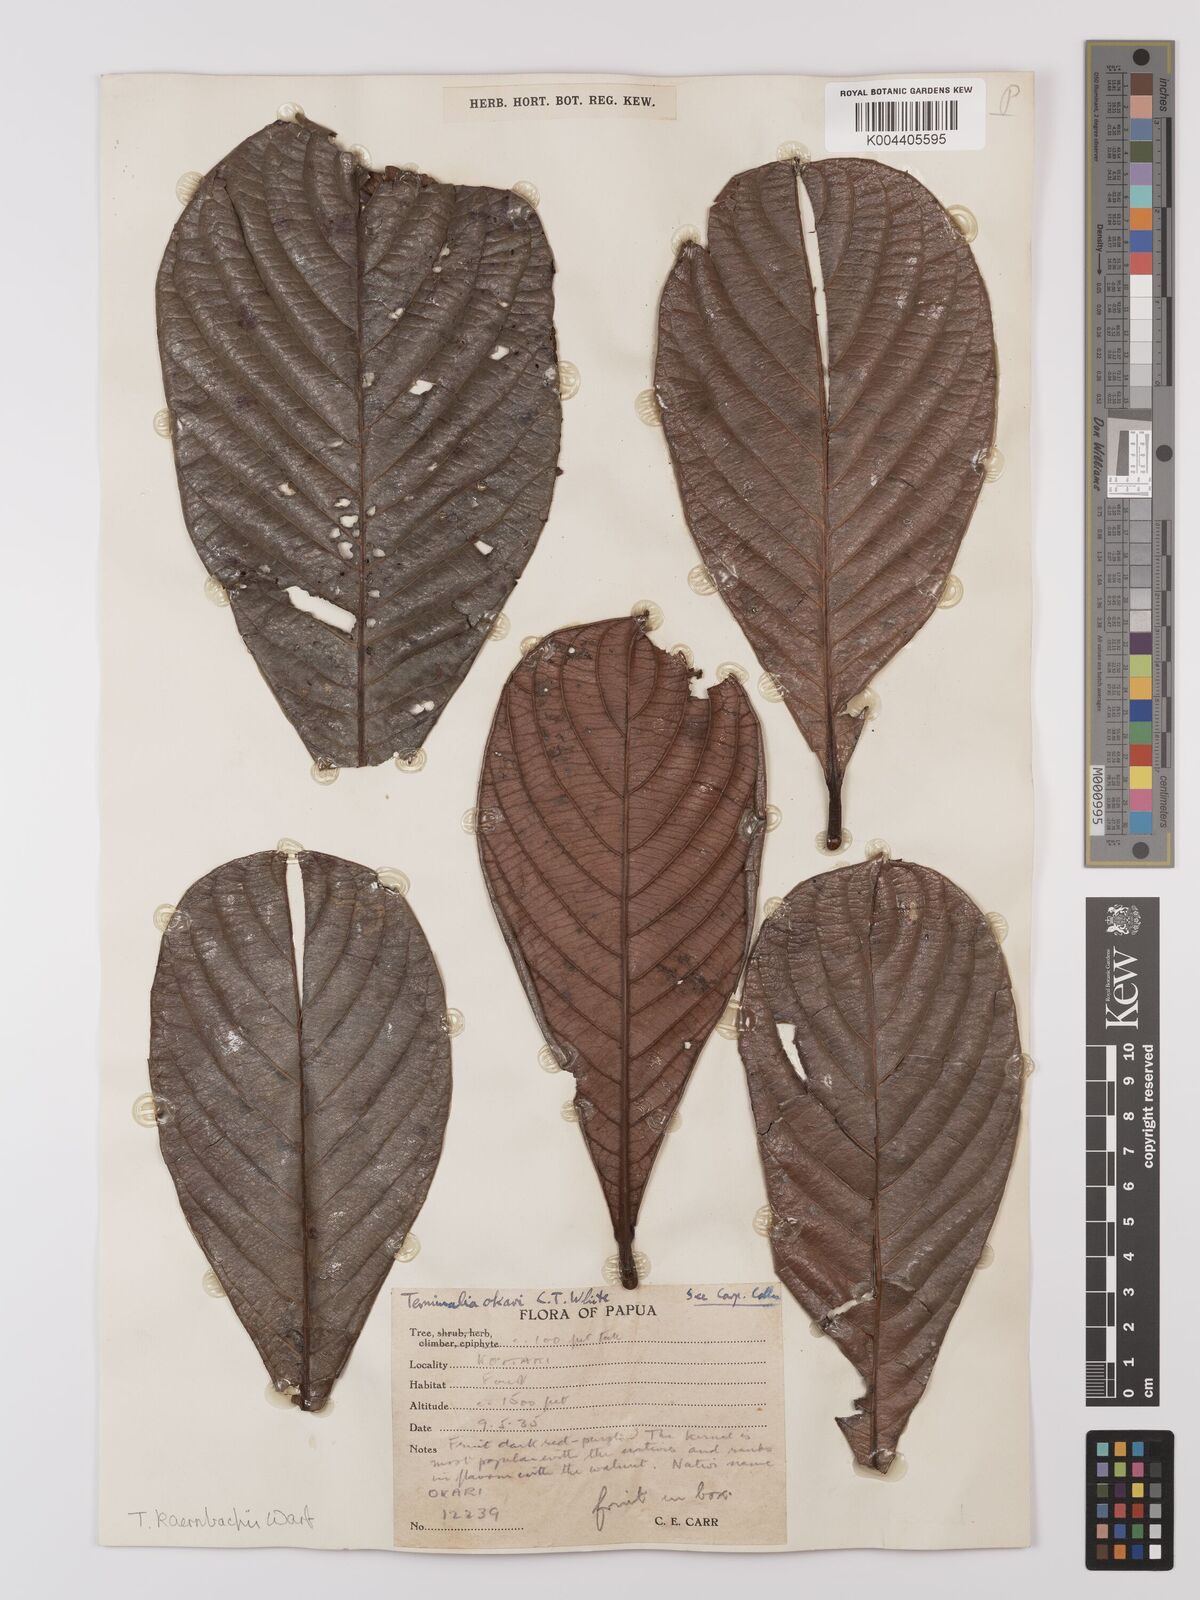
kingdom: Plantae
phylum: Tracheophyta
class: Magnoliopsida
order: Myrtales
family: Combretaceae
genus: Terminalia
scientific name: Terminalia kaernbachii
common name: Okari-nut
